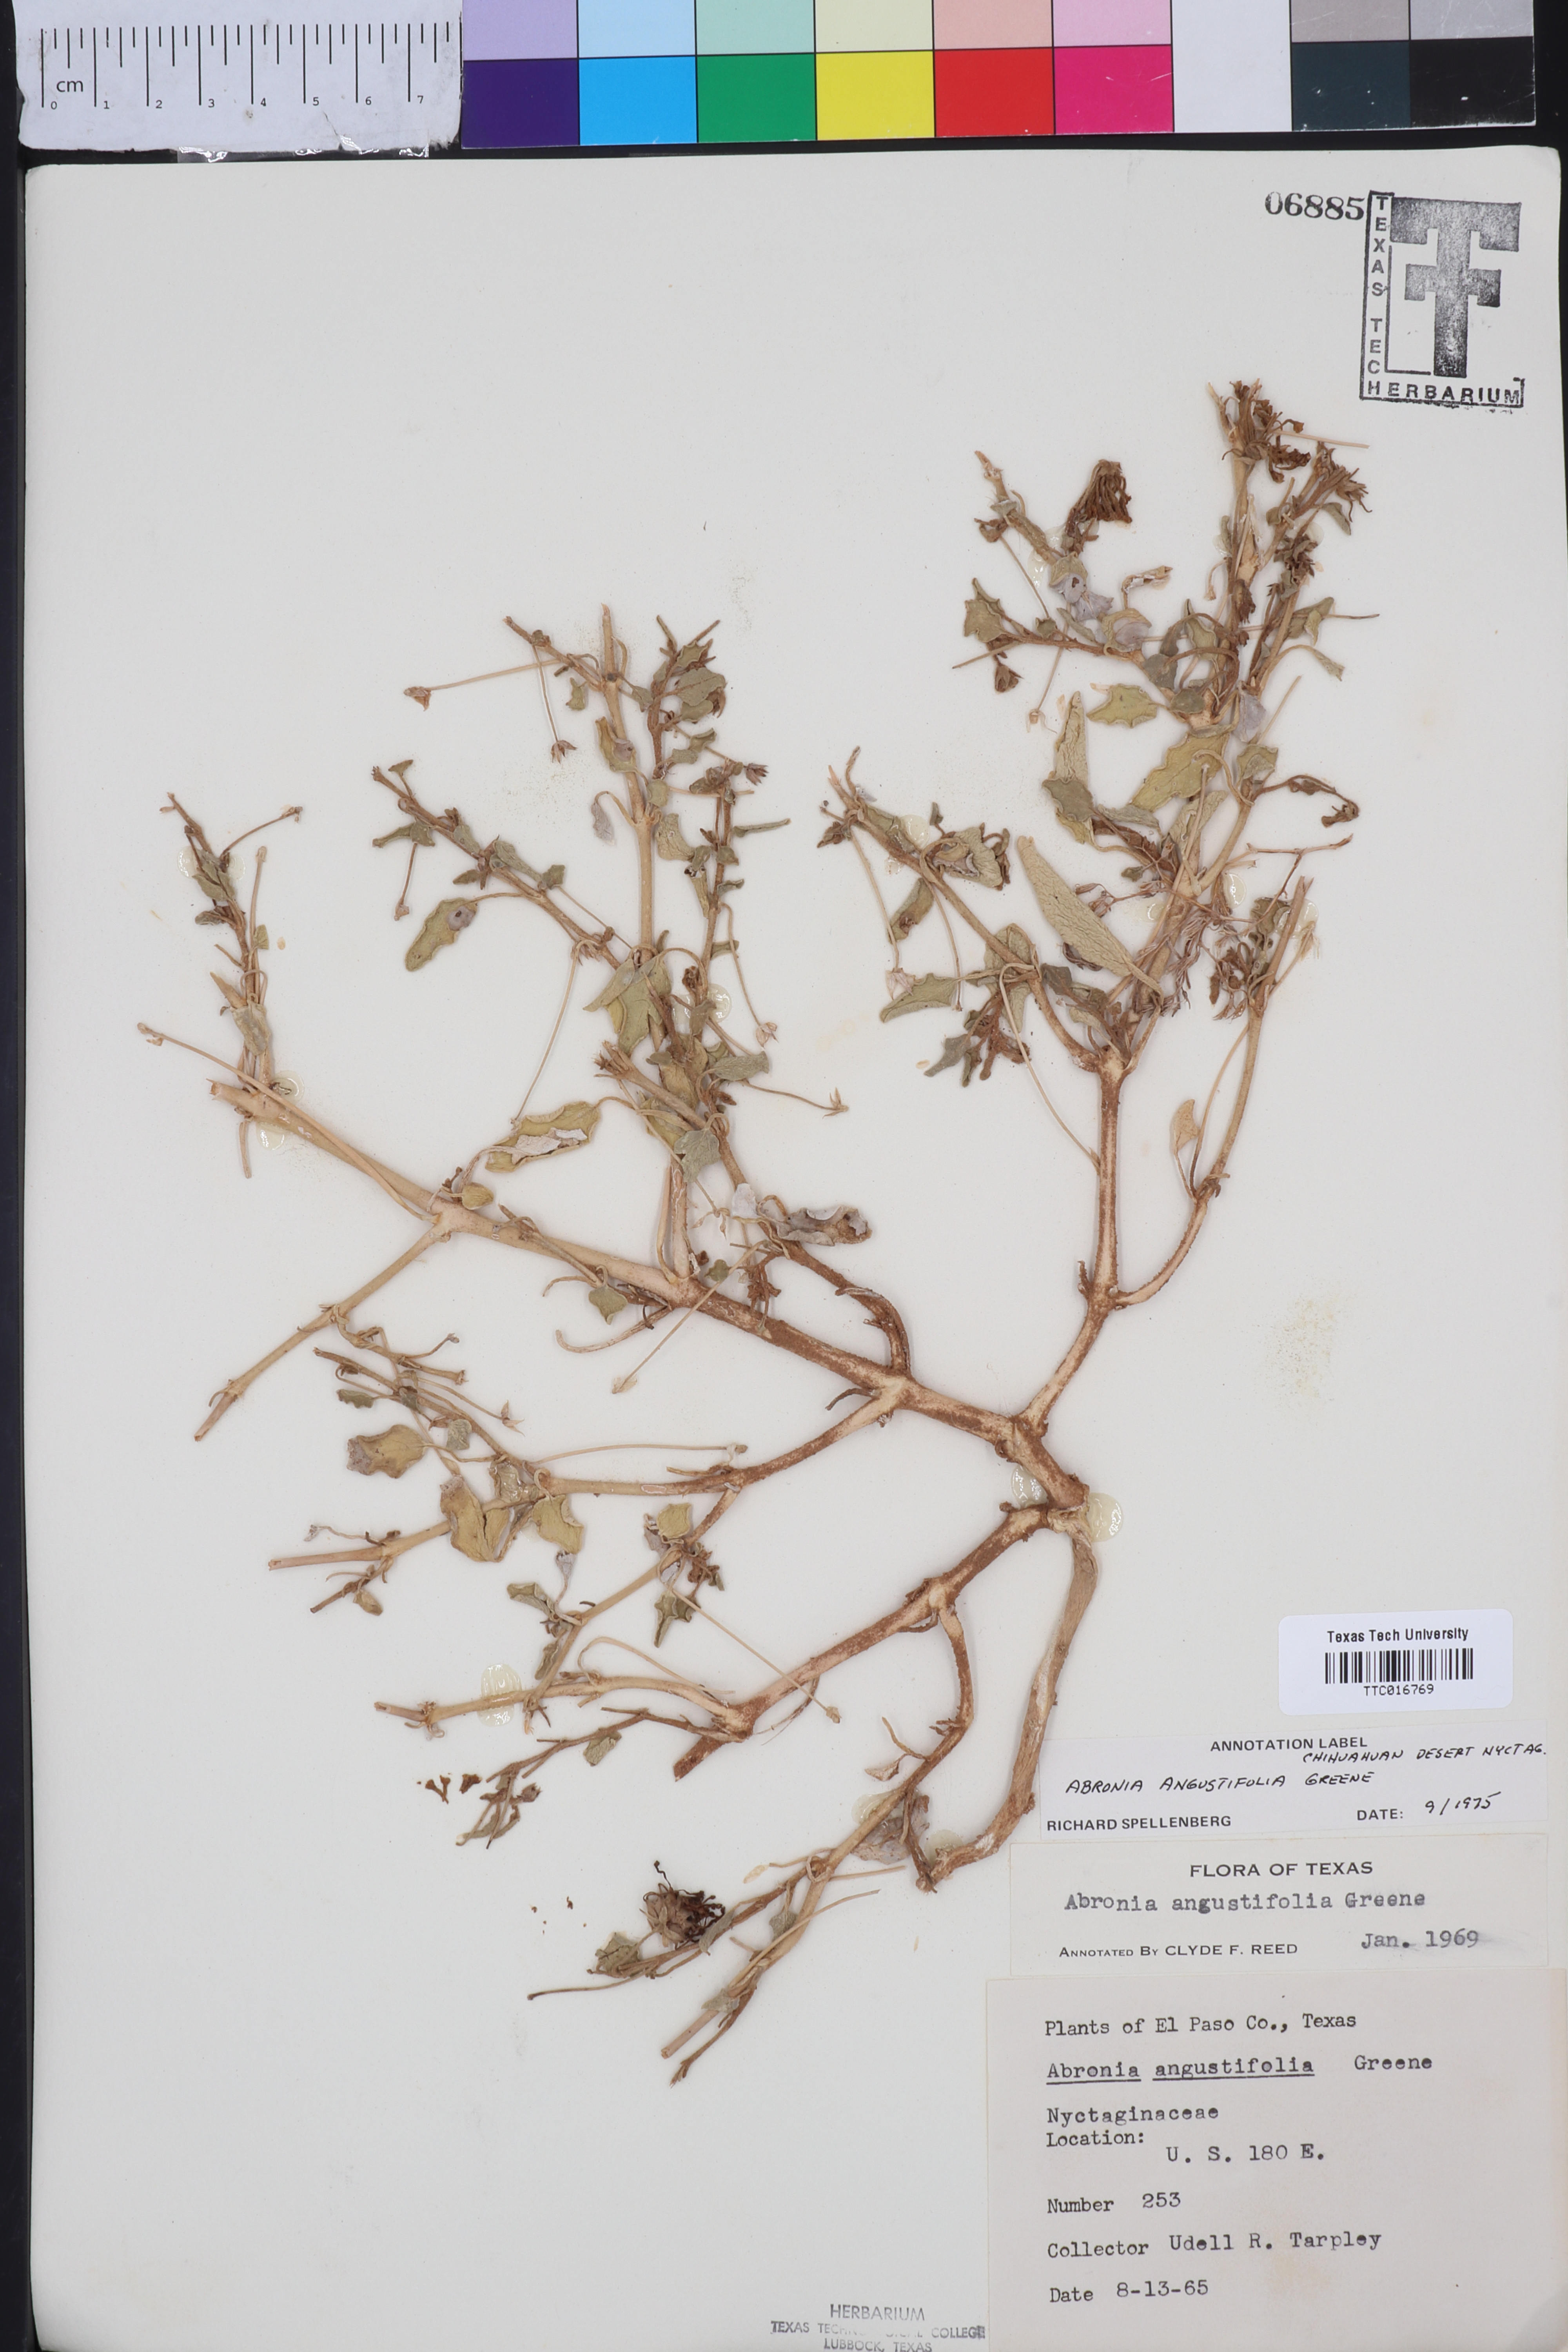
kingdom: Plantae
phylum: Tracheophyta
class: Magnoliopsida
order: Caryophyllales
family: Nyctaginaceae
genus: Abronia
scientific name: Abronia angustifolia
